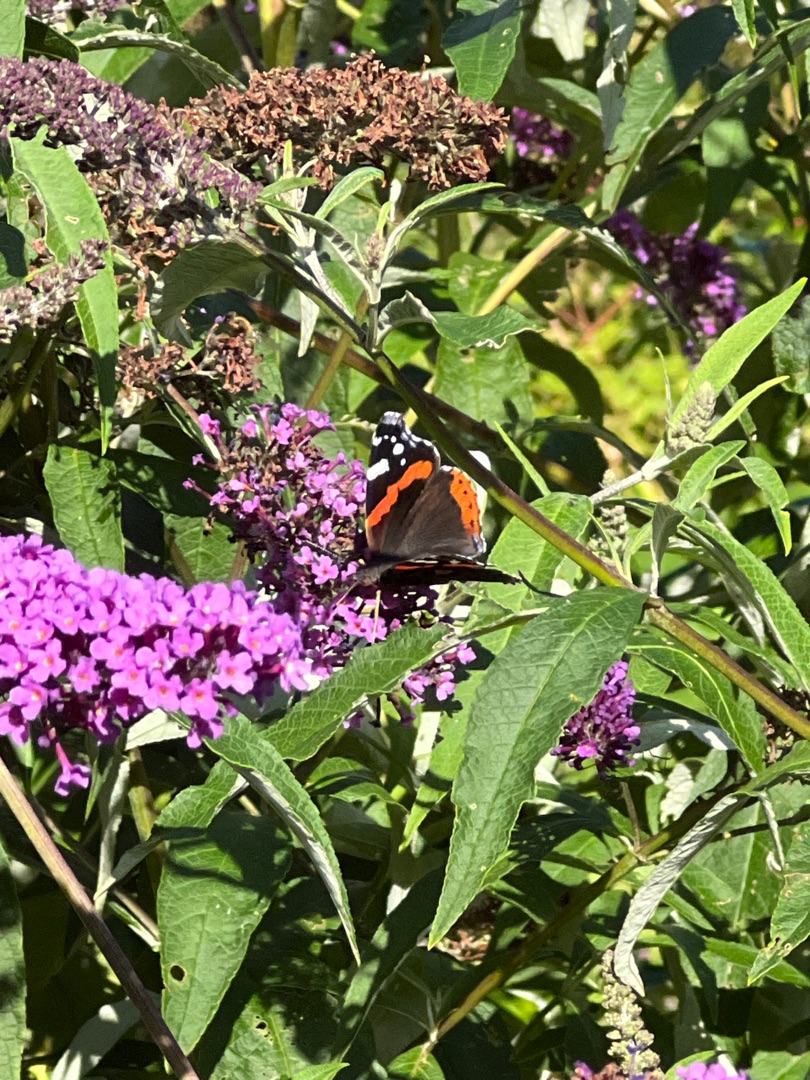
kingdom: Animalia
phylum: Arthropoda
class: Insecta
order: Lepidoptera
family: Nymphalidae
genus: Vanessa
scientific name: Vanessa atalanta
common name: Admiral
